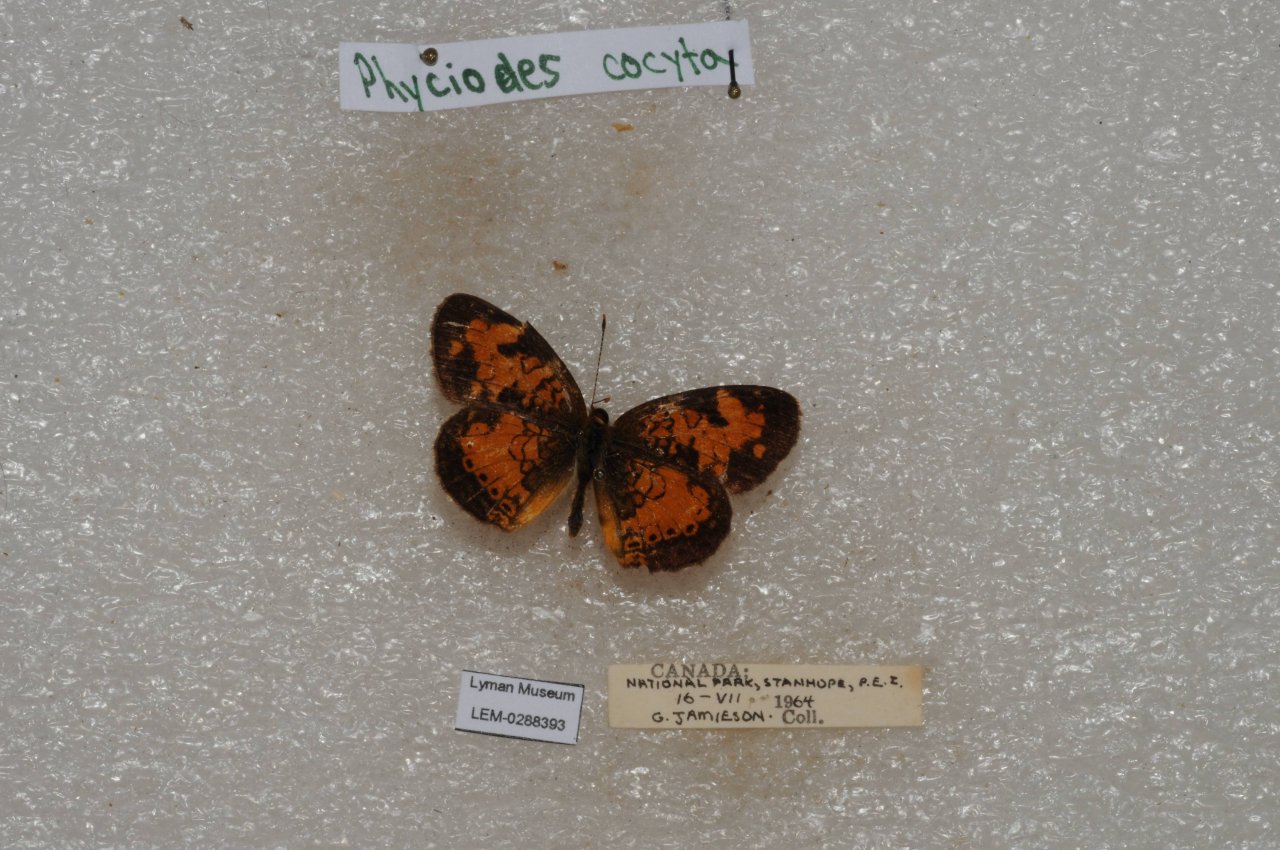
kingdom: Animalia
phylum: Arthropoda
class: Insecta
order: Lepidoptera
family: Nymphalidae
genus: Phyciodes
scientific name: Phyciodes tharos
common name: Northern Crescent
